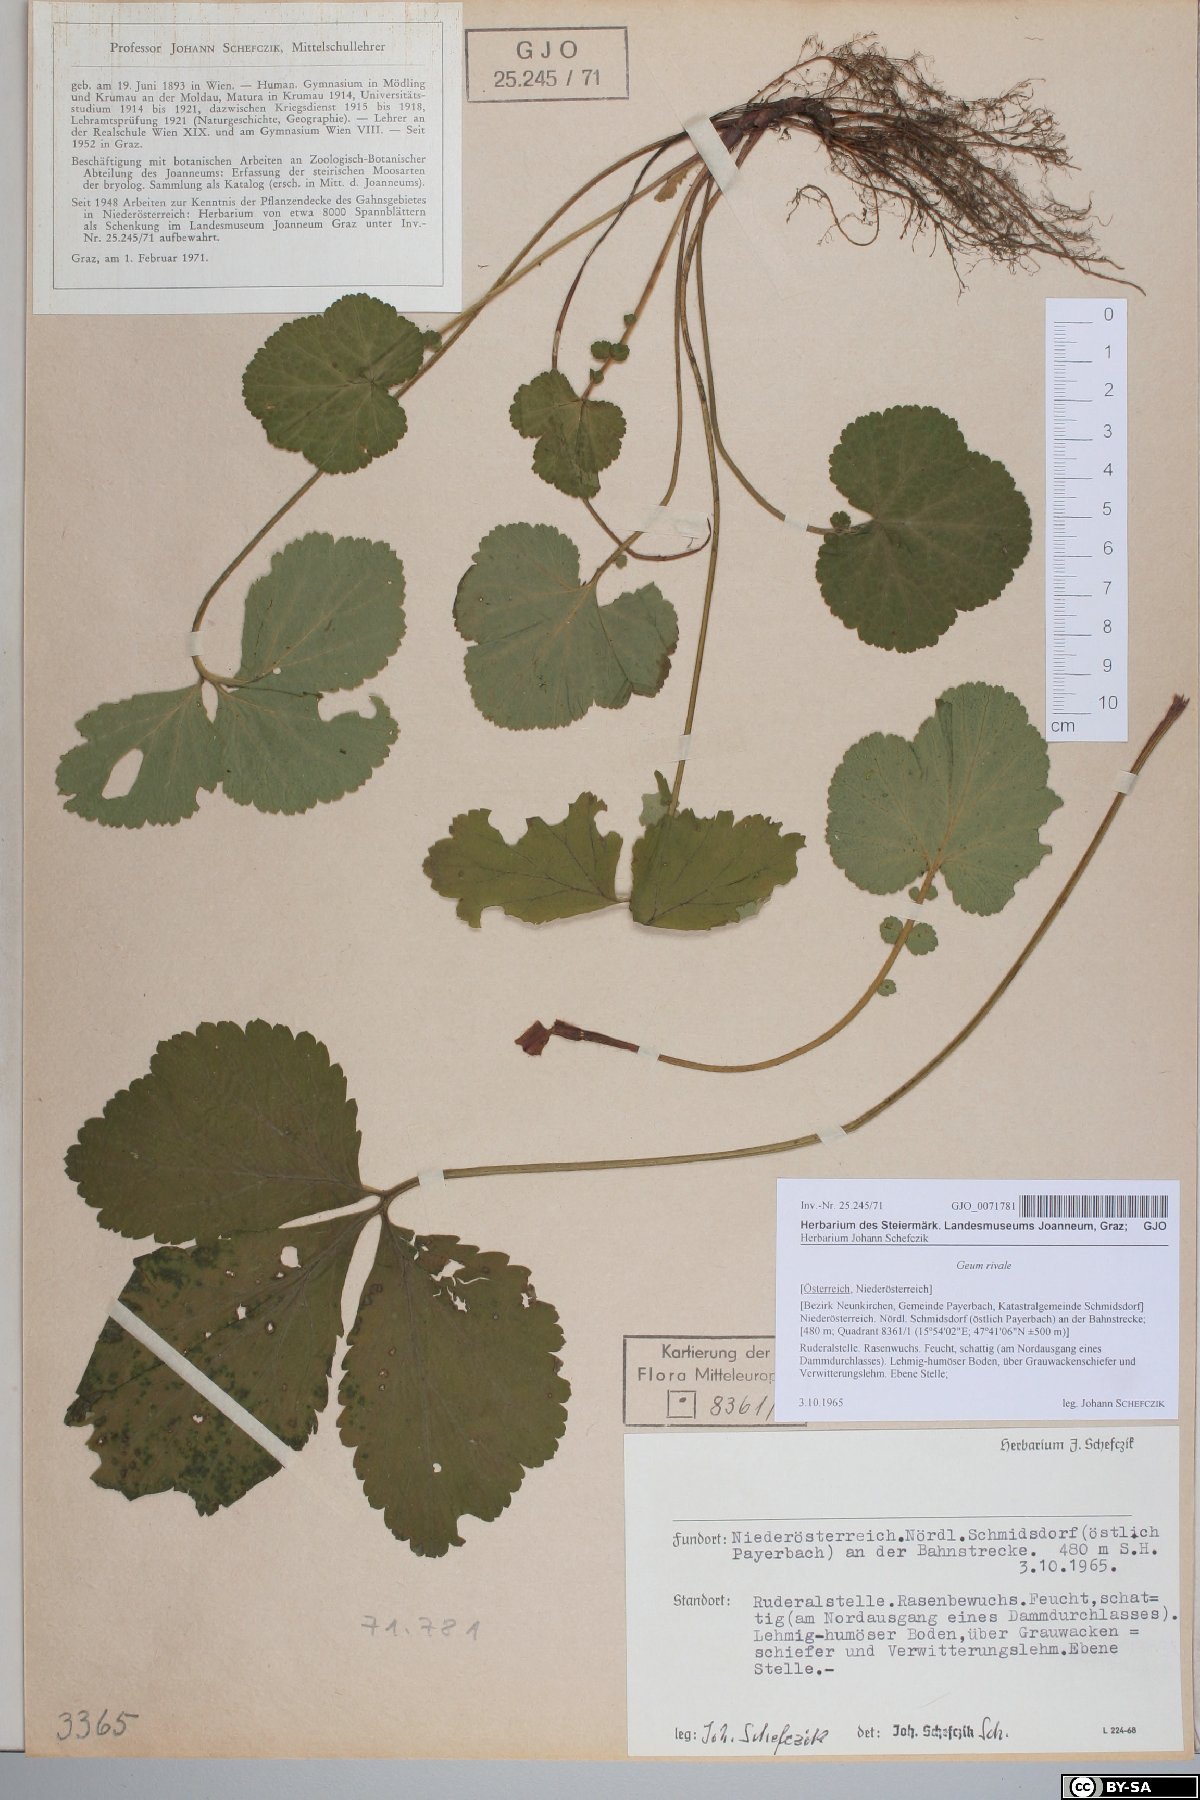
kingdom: Plantae
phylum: Tracheophyta
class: Magnoliopsida
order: Rosales
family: Rosaceae
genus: Geum
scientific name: Geum rivale
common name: Water avens
